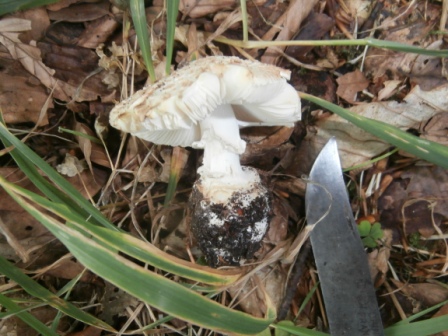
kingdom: Fungi
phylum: Basidiomycota
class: Agaricomycetes
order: Agaricales
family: Amanitaceae
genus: Amanita
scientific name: Amanita citrina
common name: False death-cap
